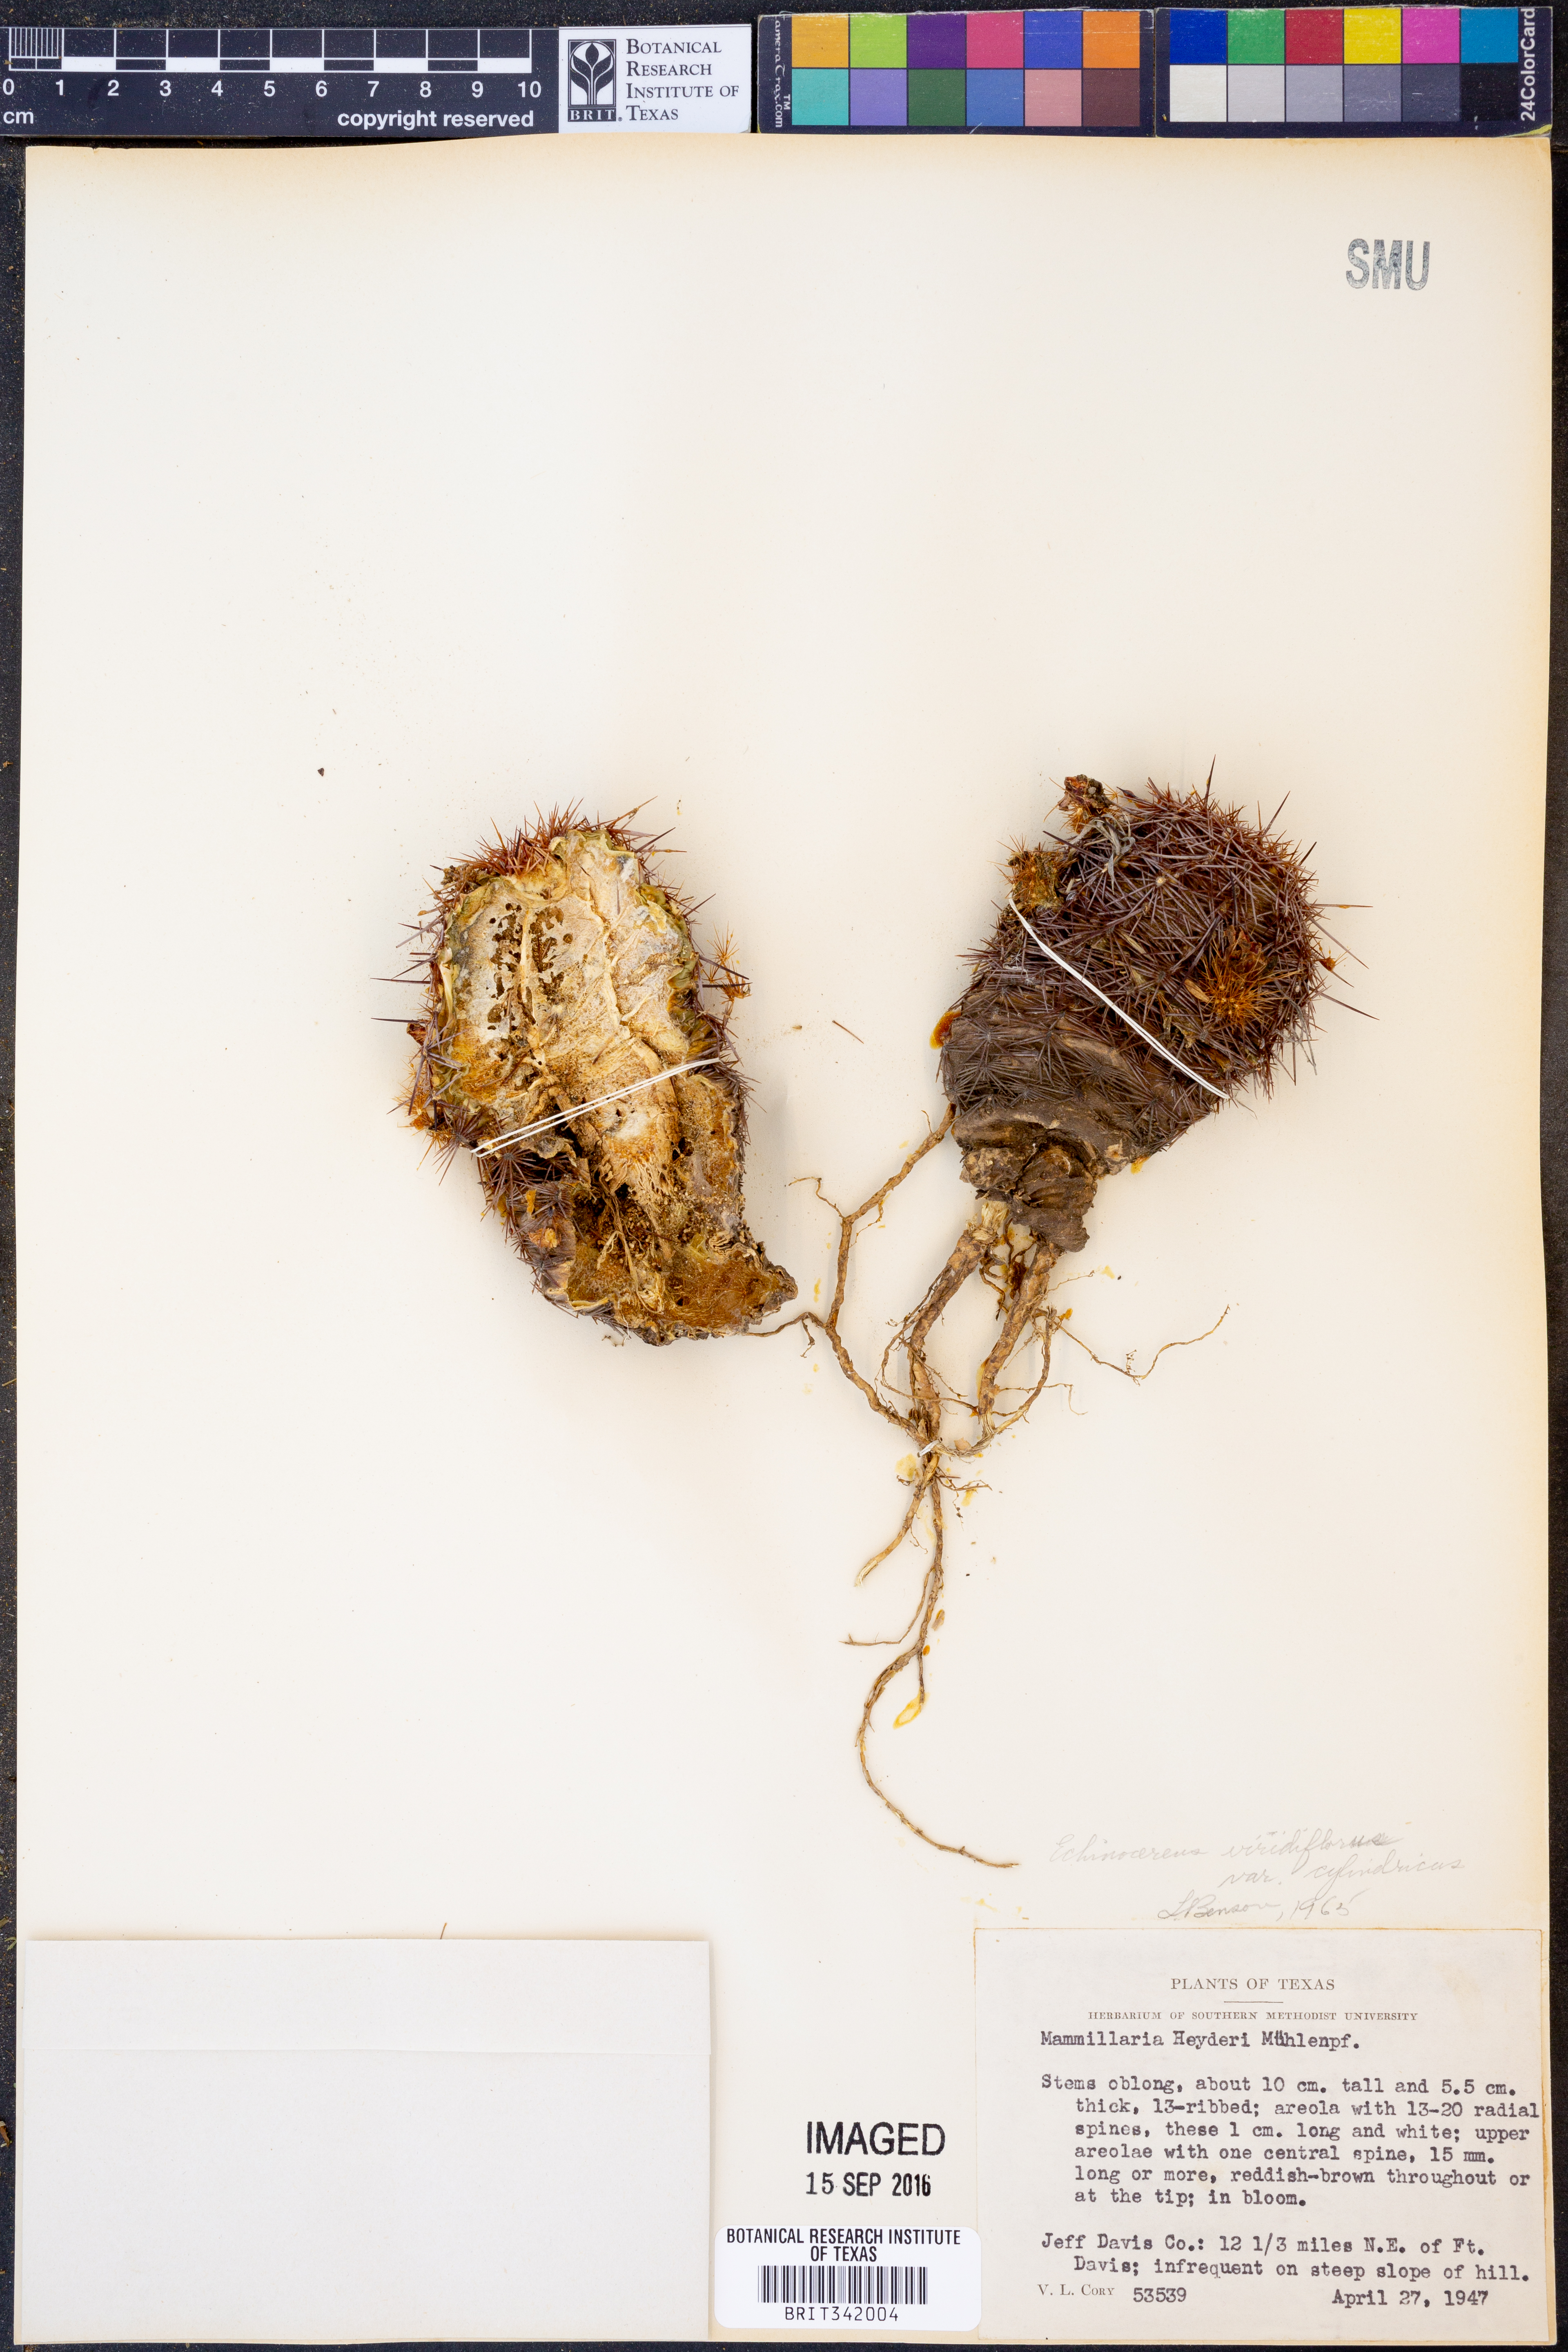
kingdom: Plantae
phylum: Tracheophyta
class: Magnoliopsida
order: Caryophyllales
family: Cactaceae
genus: Echinocereus
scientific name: Echinocereus viridiflorus
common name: Nylon hedgehog cactus
